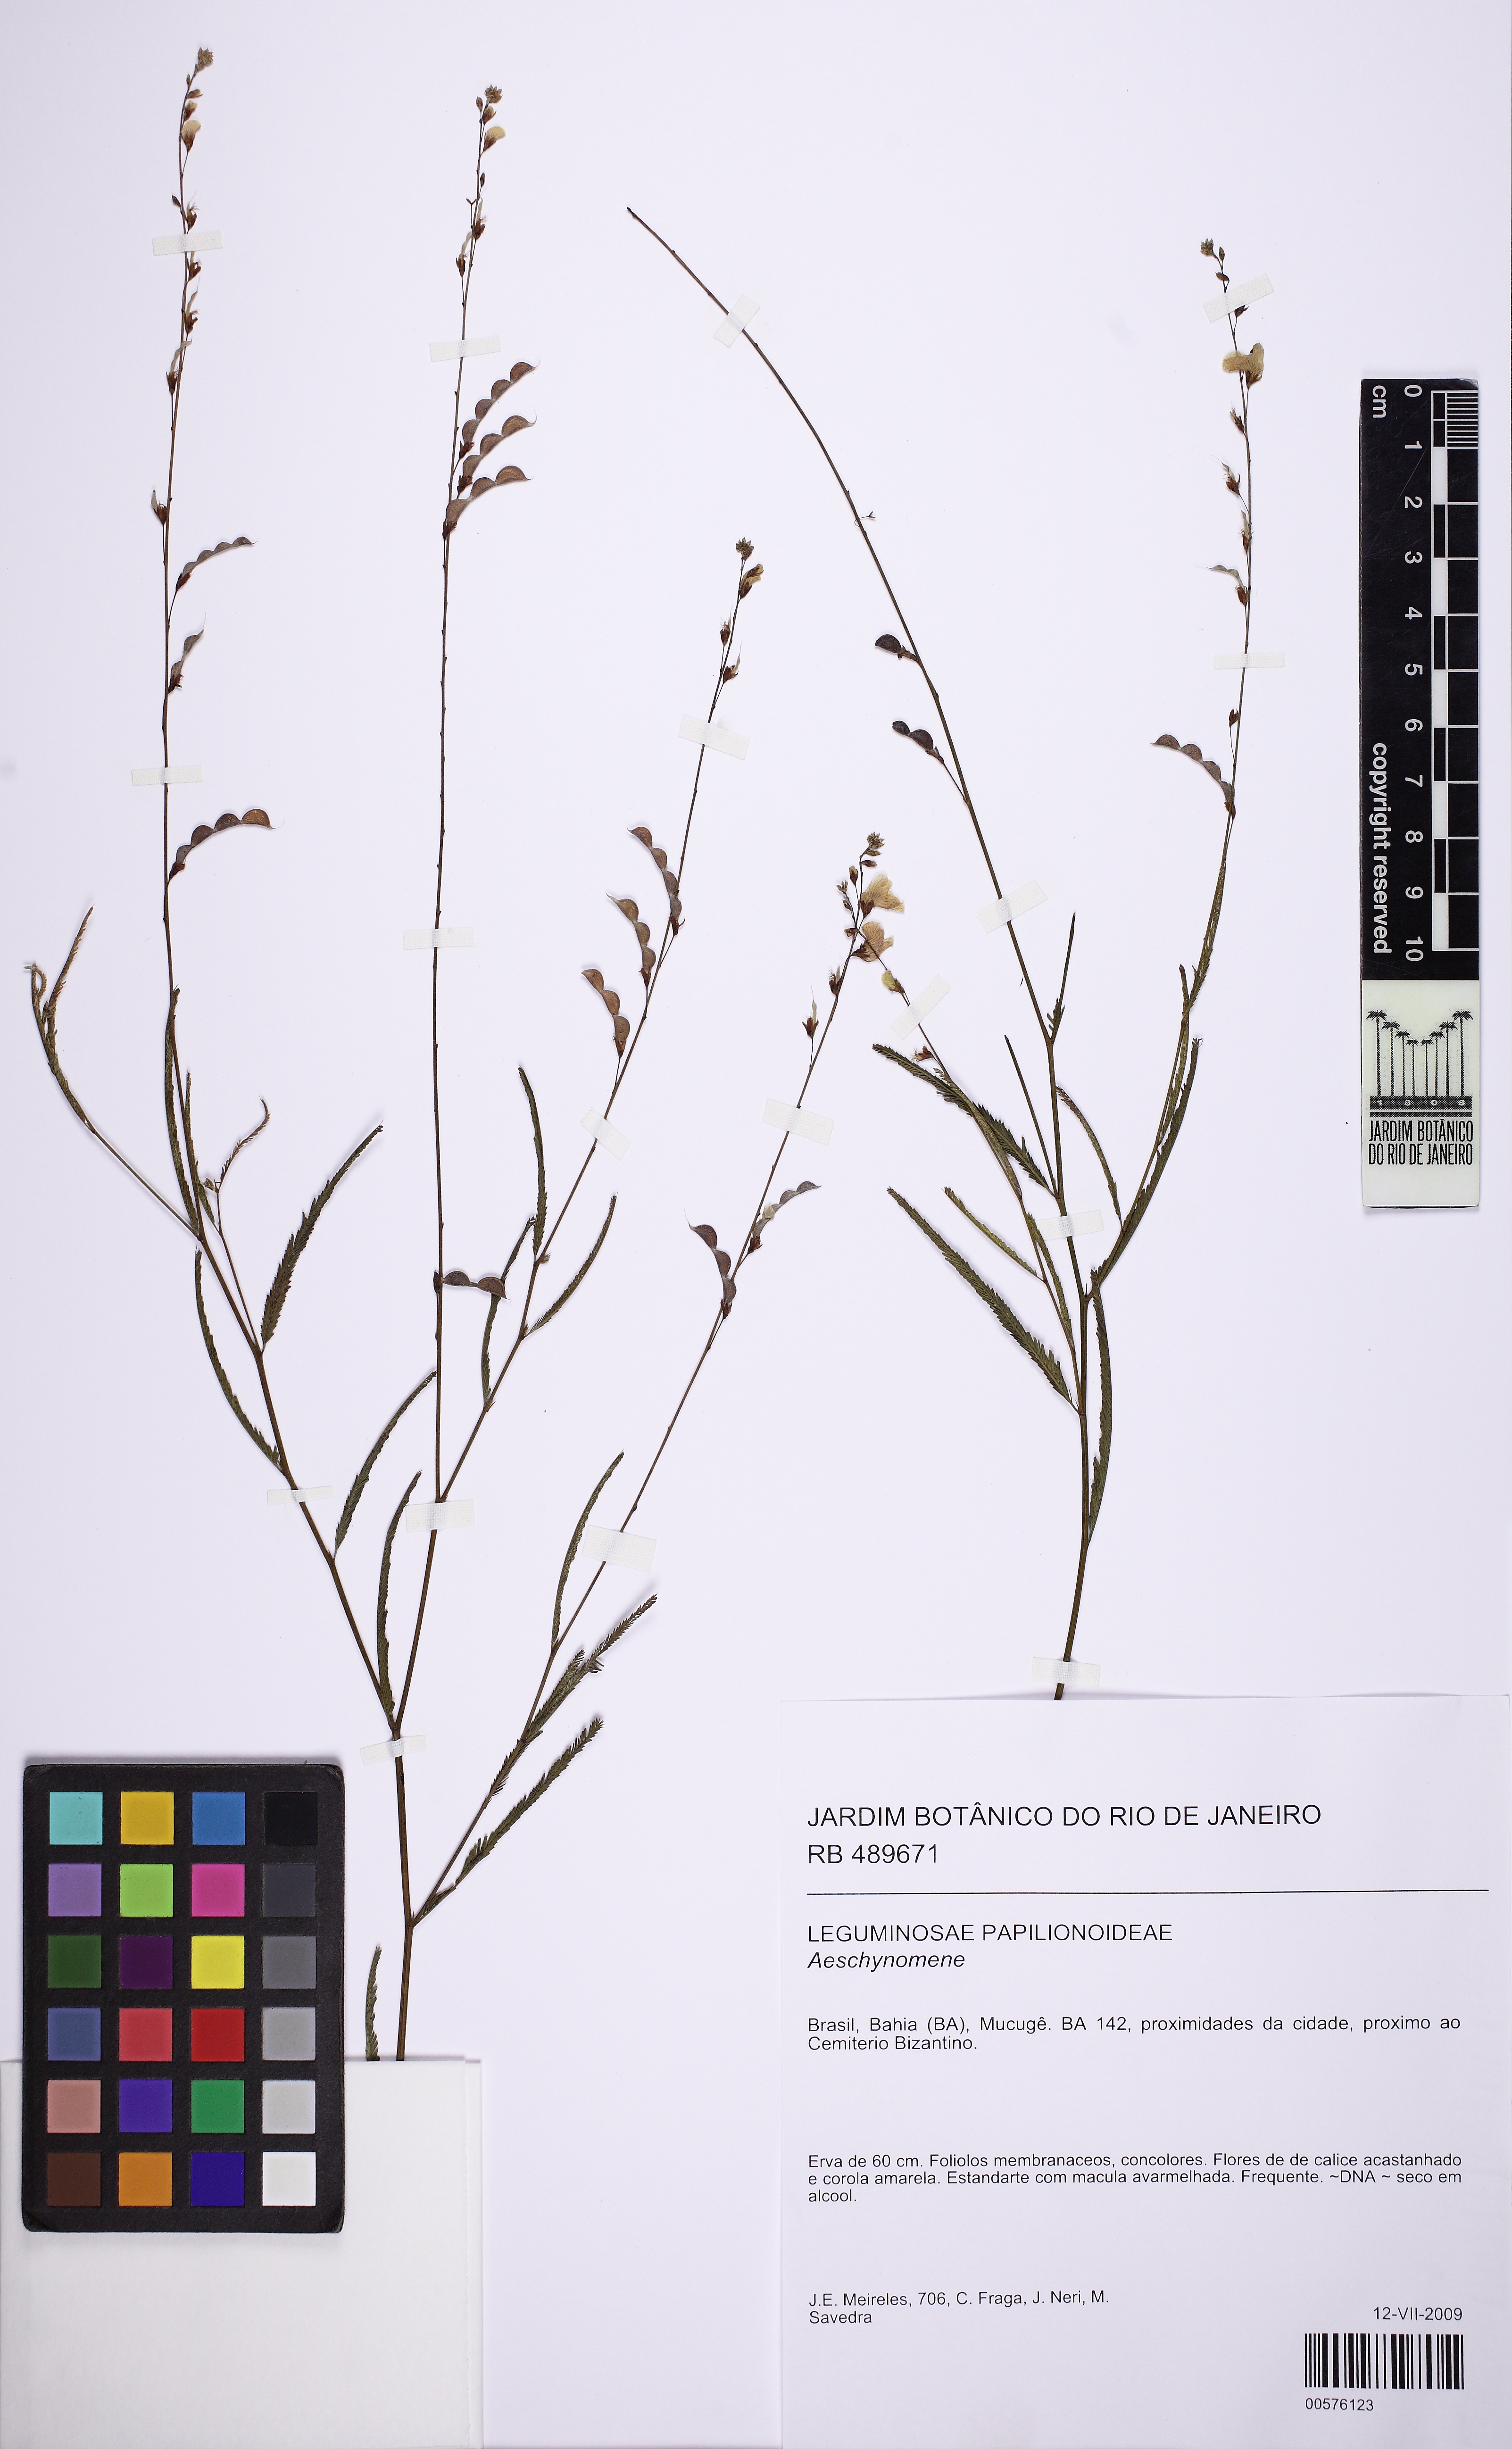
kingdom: Plantae
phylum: Tracheophyta
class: Magnoliopsida
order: Fabales
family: Fabaceae
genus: Ctenodon
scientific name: Ctenodon brevipes
